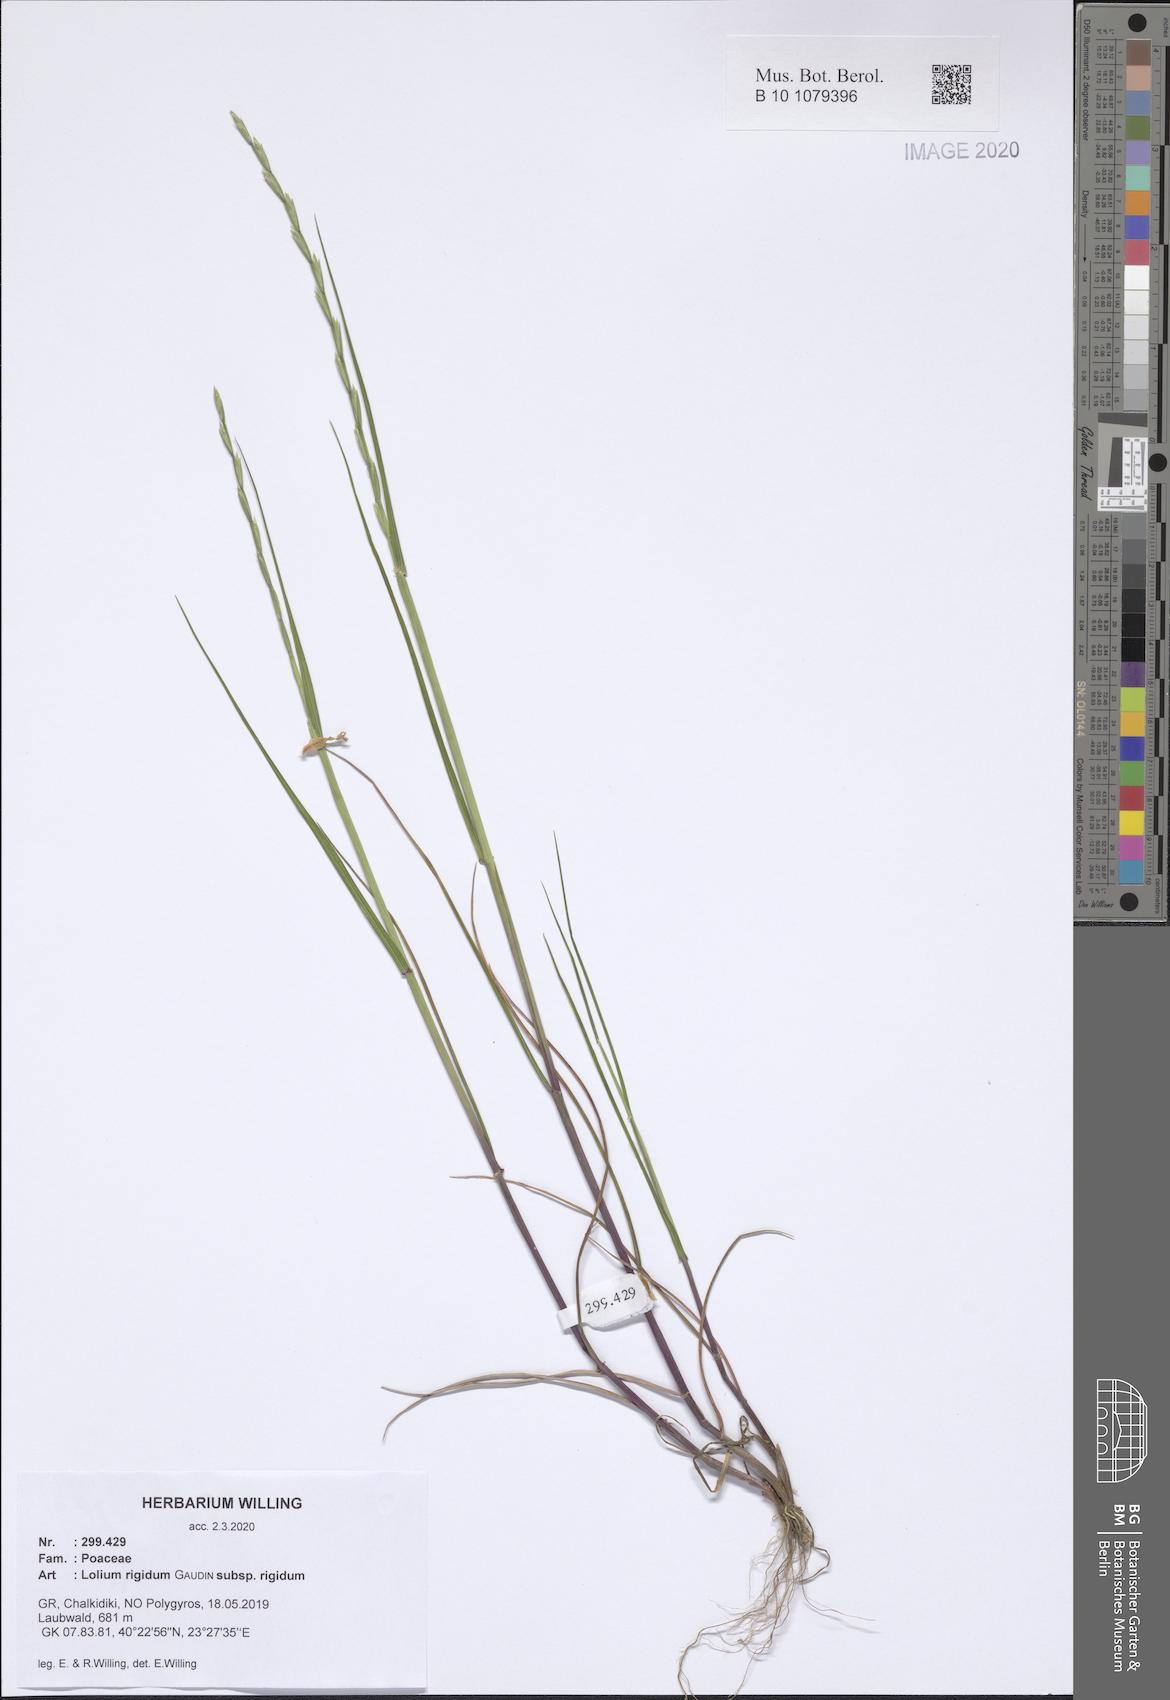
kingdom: Plantae
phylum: Tracheophyta
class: Liliopsida
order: Poales
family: Poaceae
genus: Lolium
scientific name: Lolium rigidum
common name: Wimmera ryegrass
